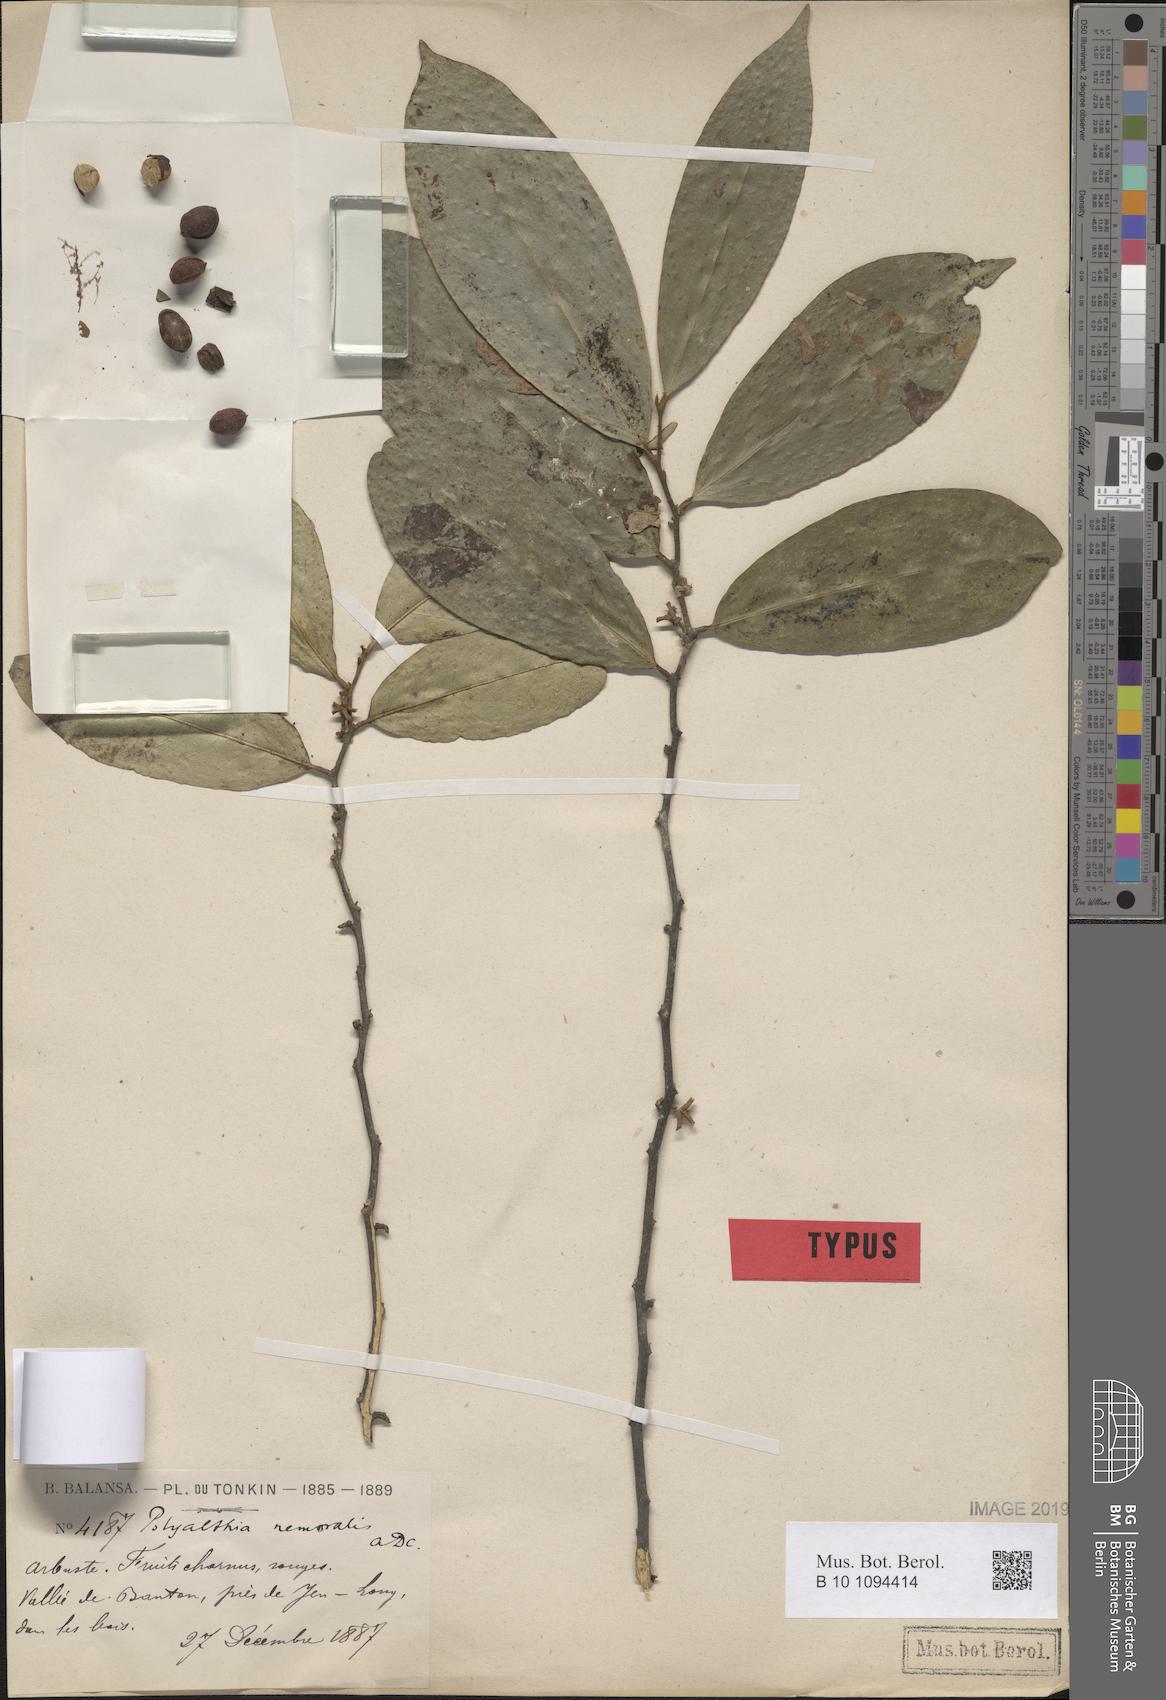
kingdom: Plantae
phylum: Tracheophyta
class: Magnoliopsida
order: Magnoliales
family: Annonaceae
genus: Trivalvaria
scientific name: Trivalvaria costata
